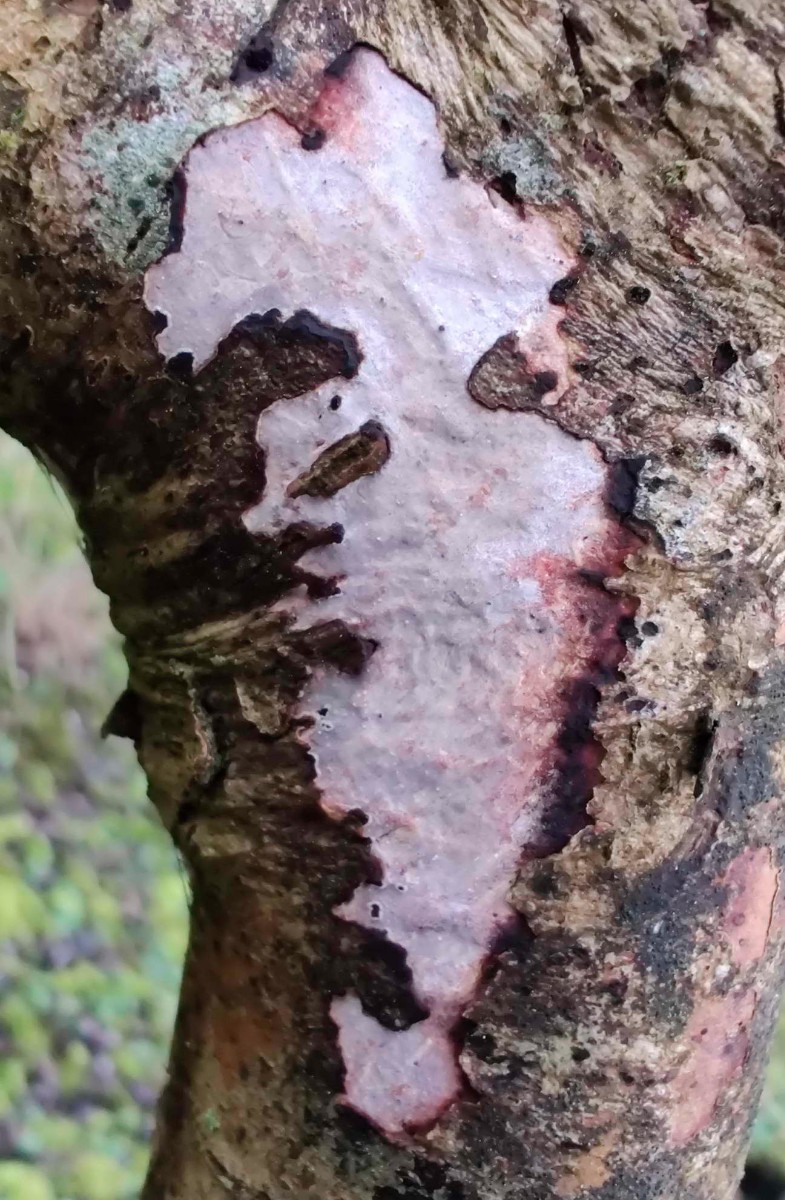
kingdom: Fungi
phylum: Basidiomycota
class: Agaricomycetes
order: Corticiales
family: Vuilleminiaceae
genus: Vuilleminia
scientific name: Vuilleminia cystidiata
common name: tjørne-barksprænger
